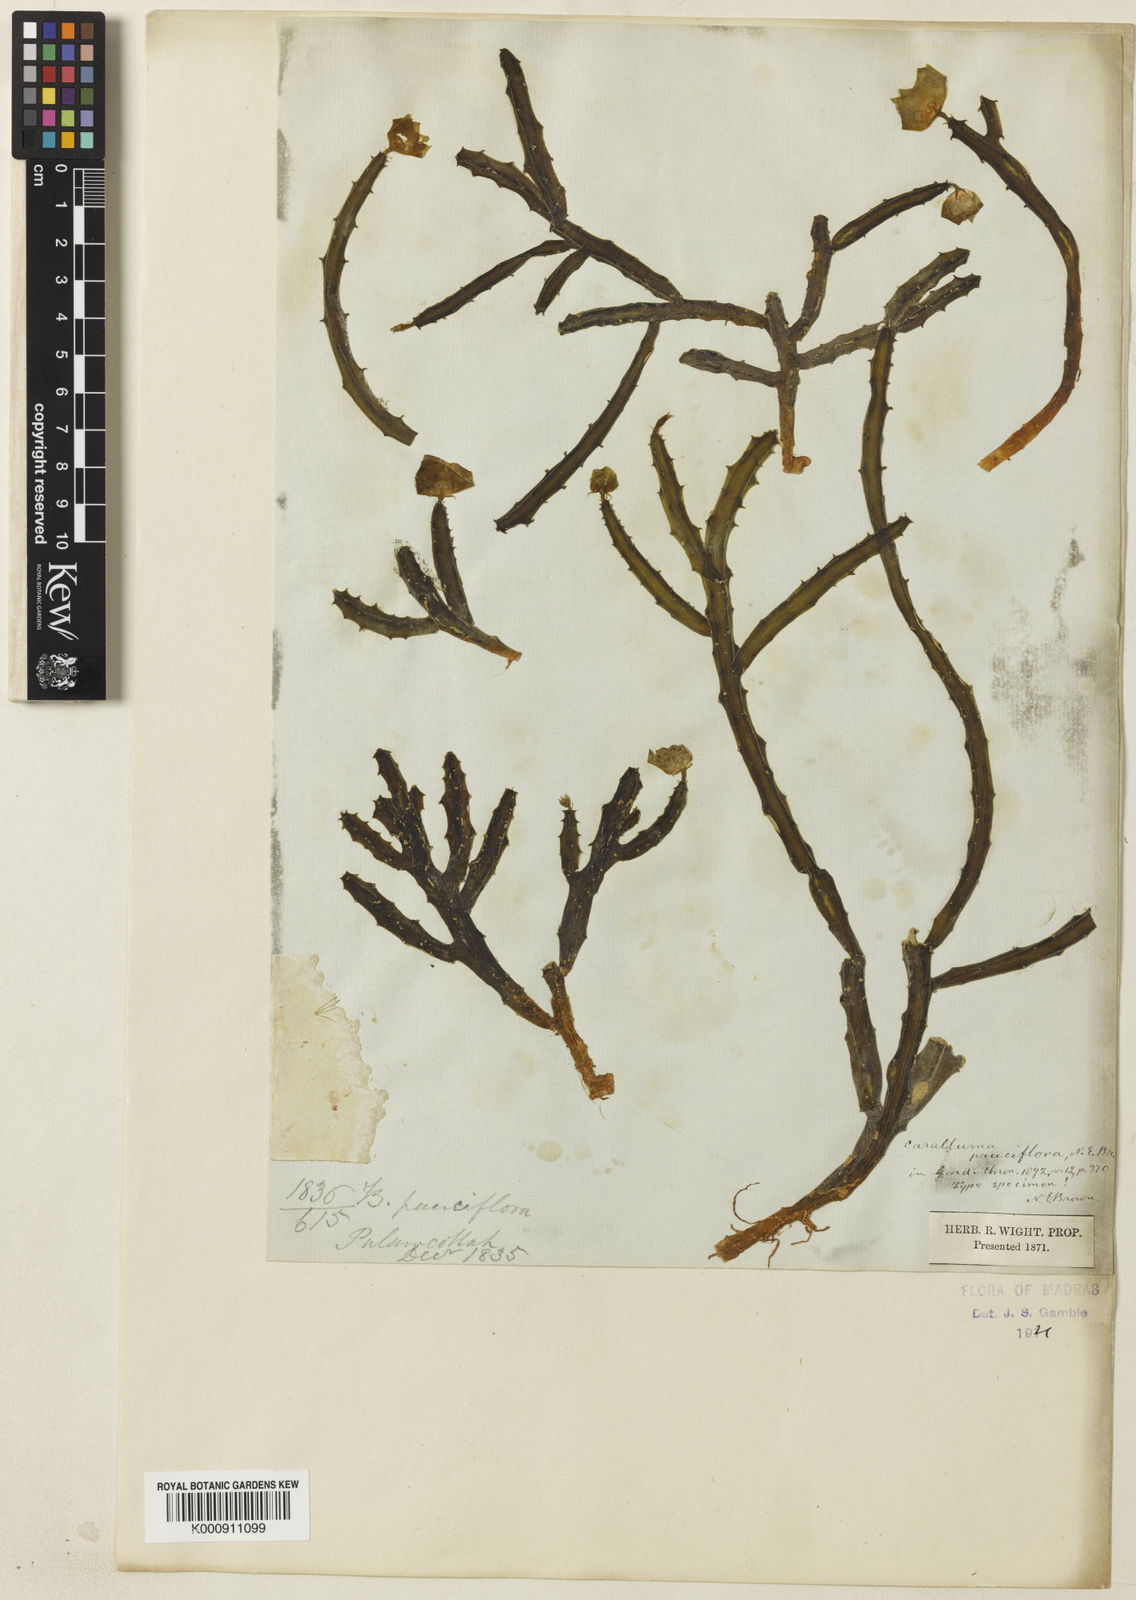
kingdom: Plantae
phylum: Tracheophyta
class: Magnoliopsida
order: Gentianales
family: Apocynaceae
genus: Ceropegia
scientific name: Ceropegia pauciflora
